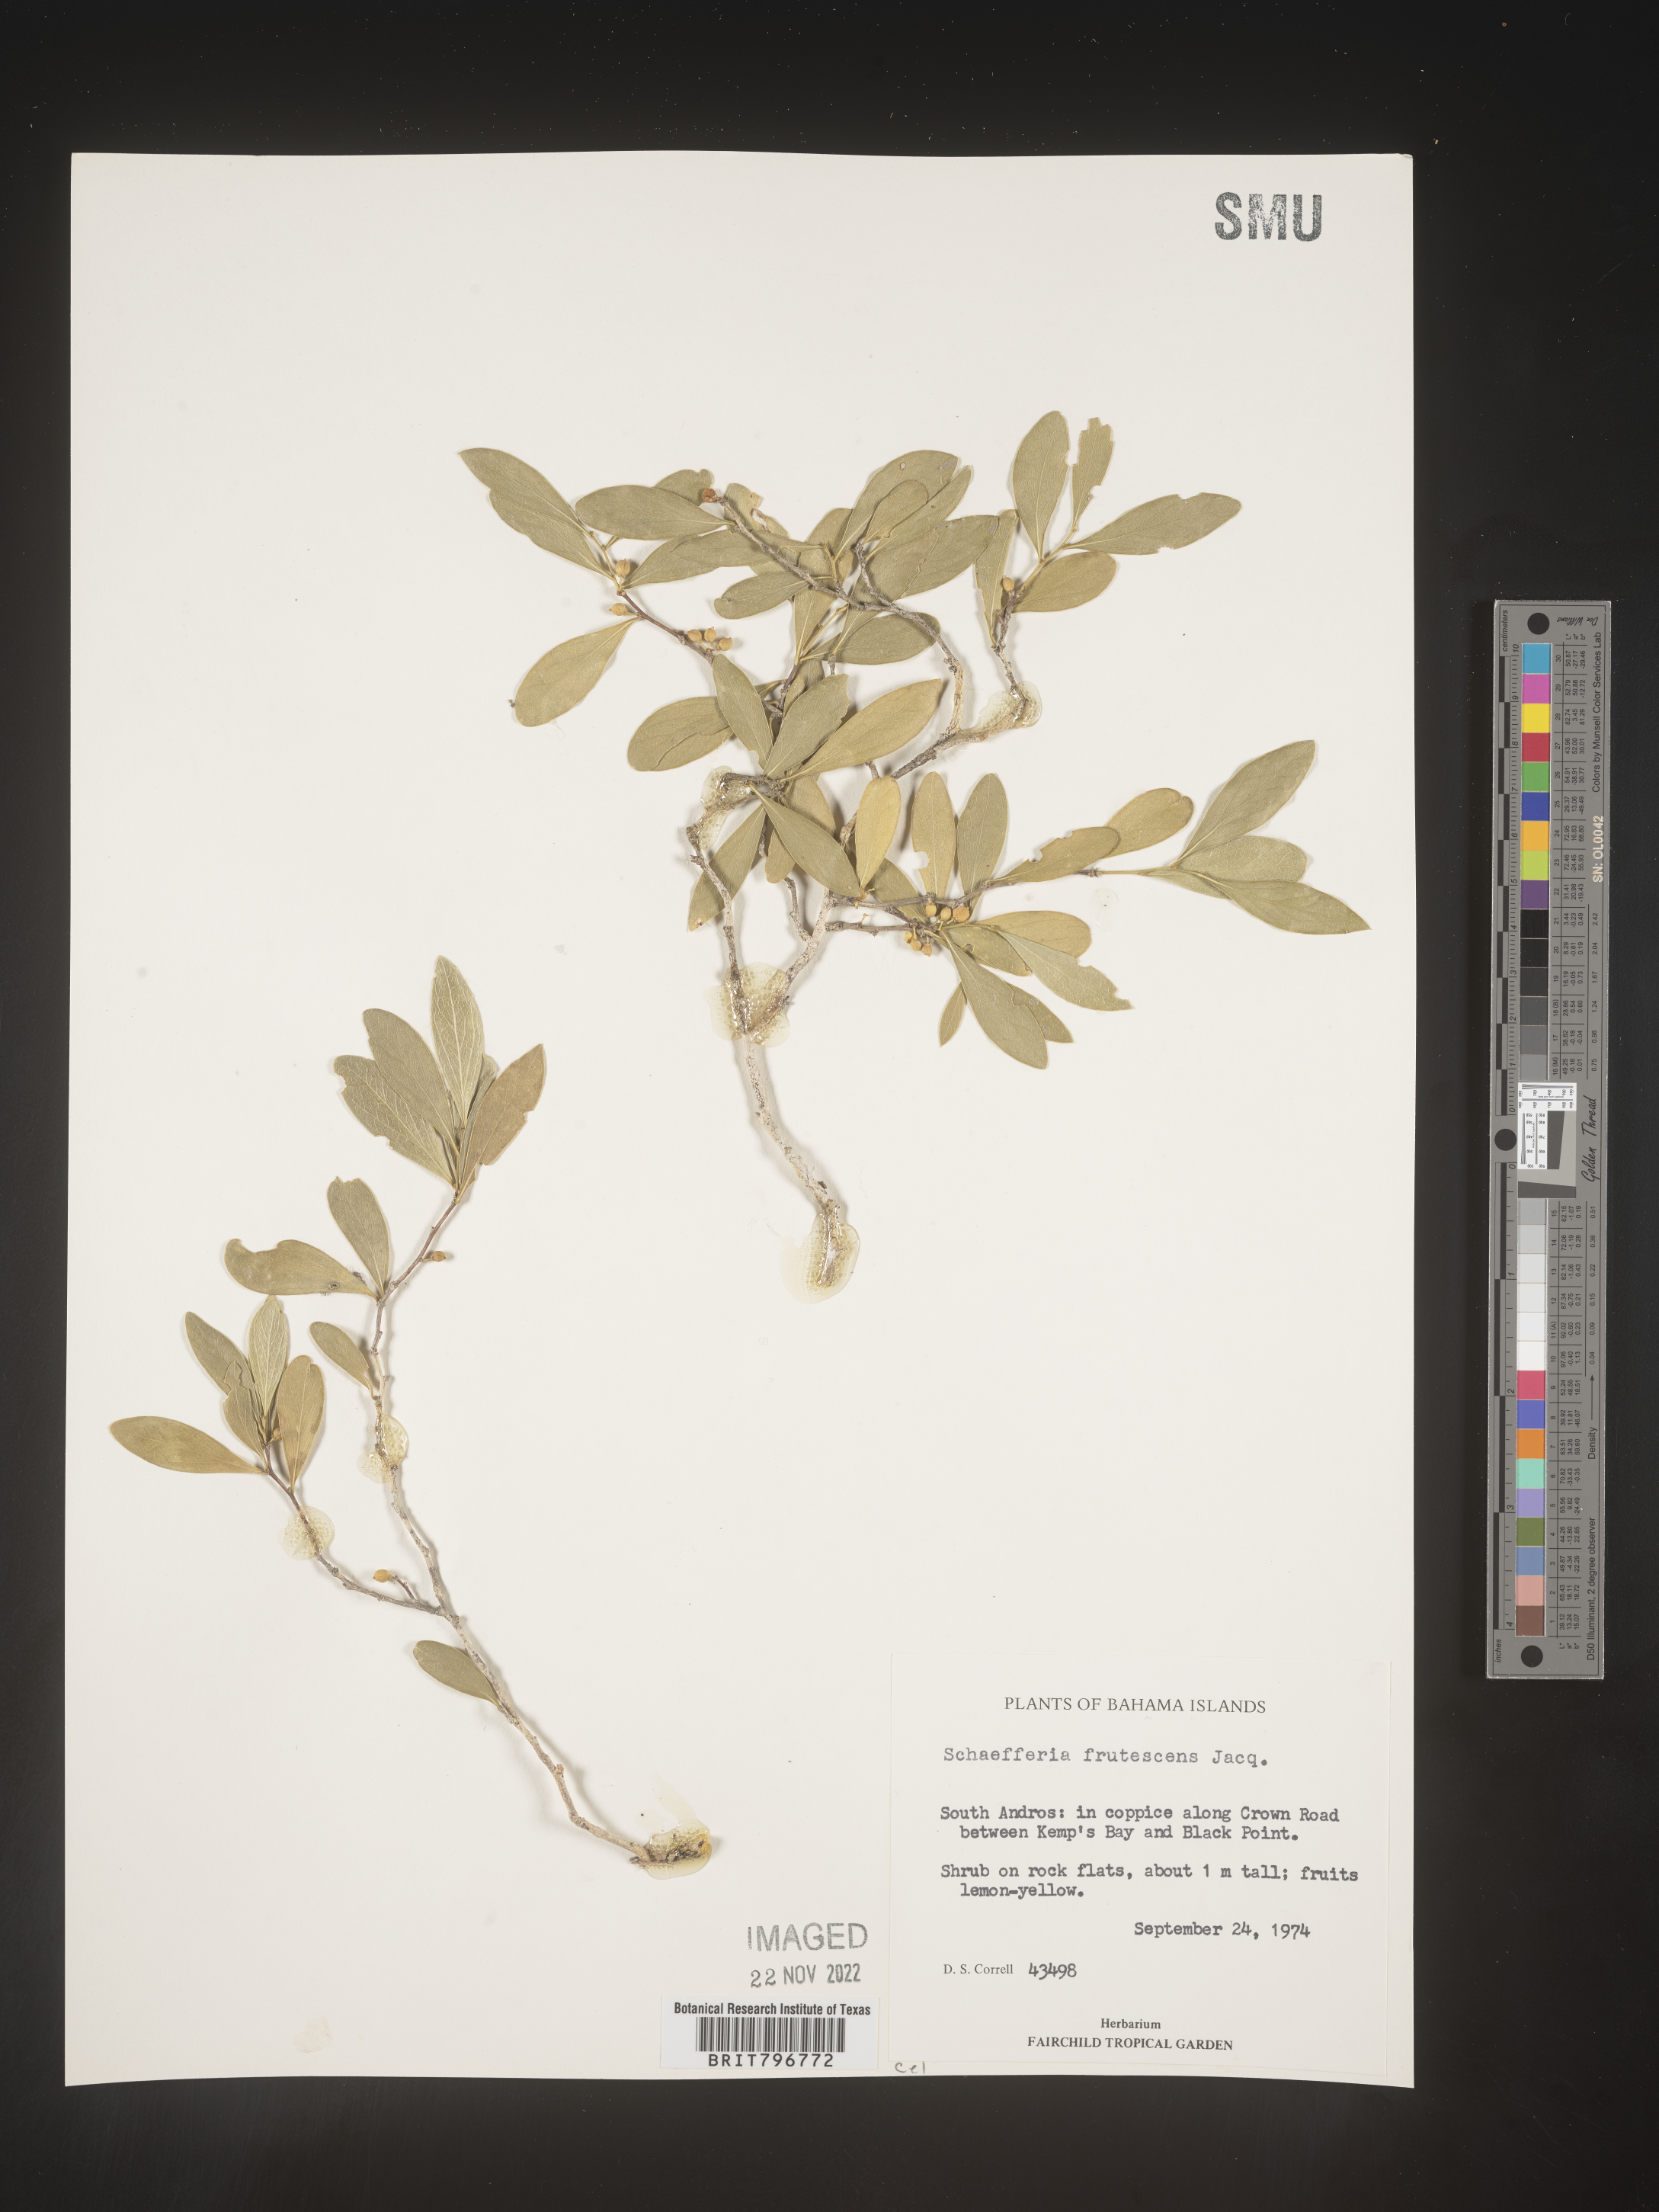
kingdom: Plantae
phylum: Tracheophyta
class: Magnoliopsida
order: Celastrales
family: Celastraceae
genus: Schaefferia
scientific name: Schaefferia
